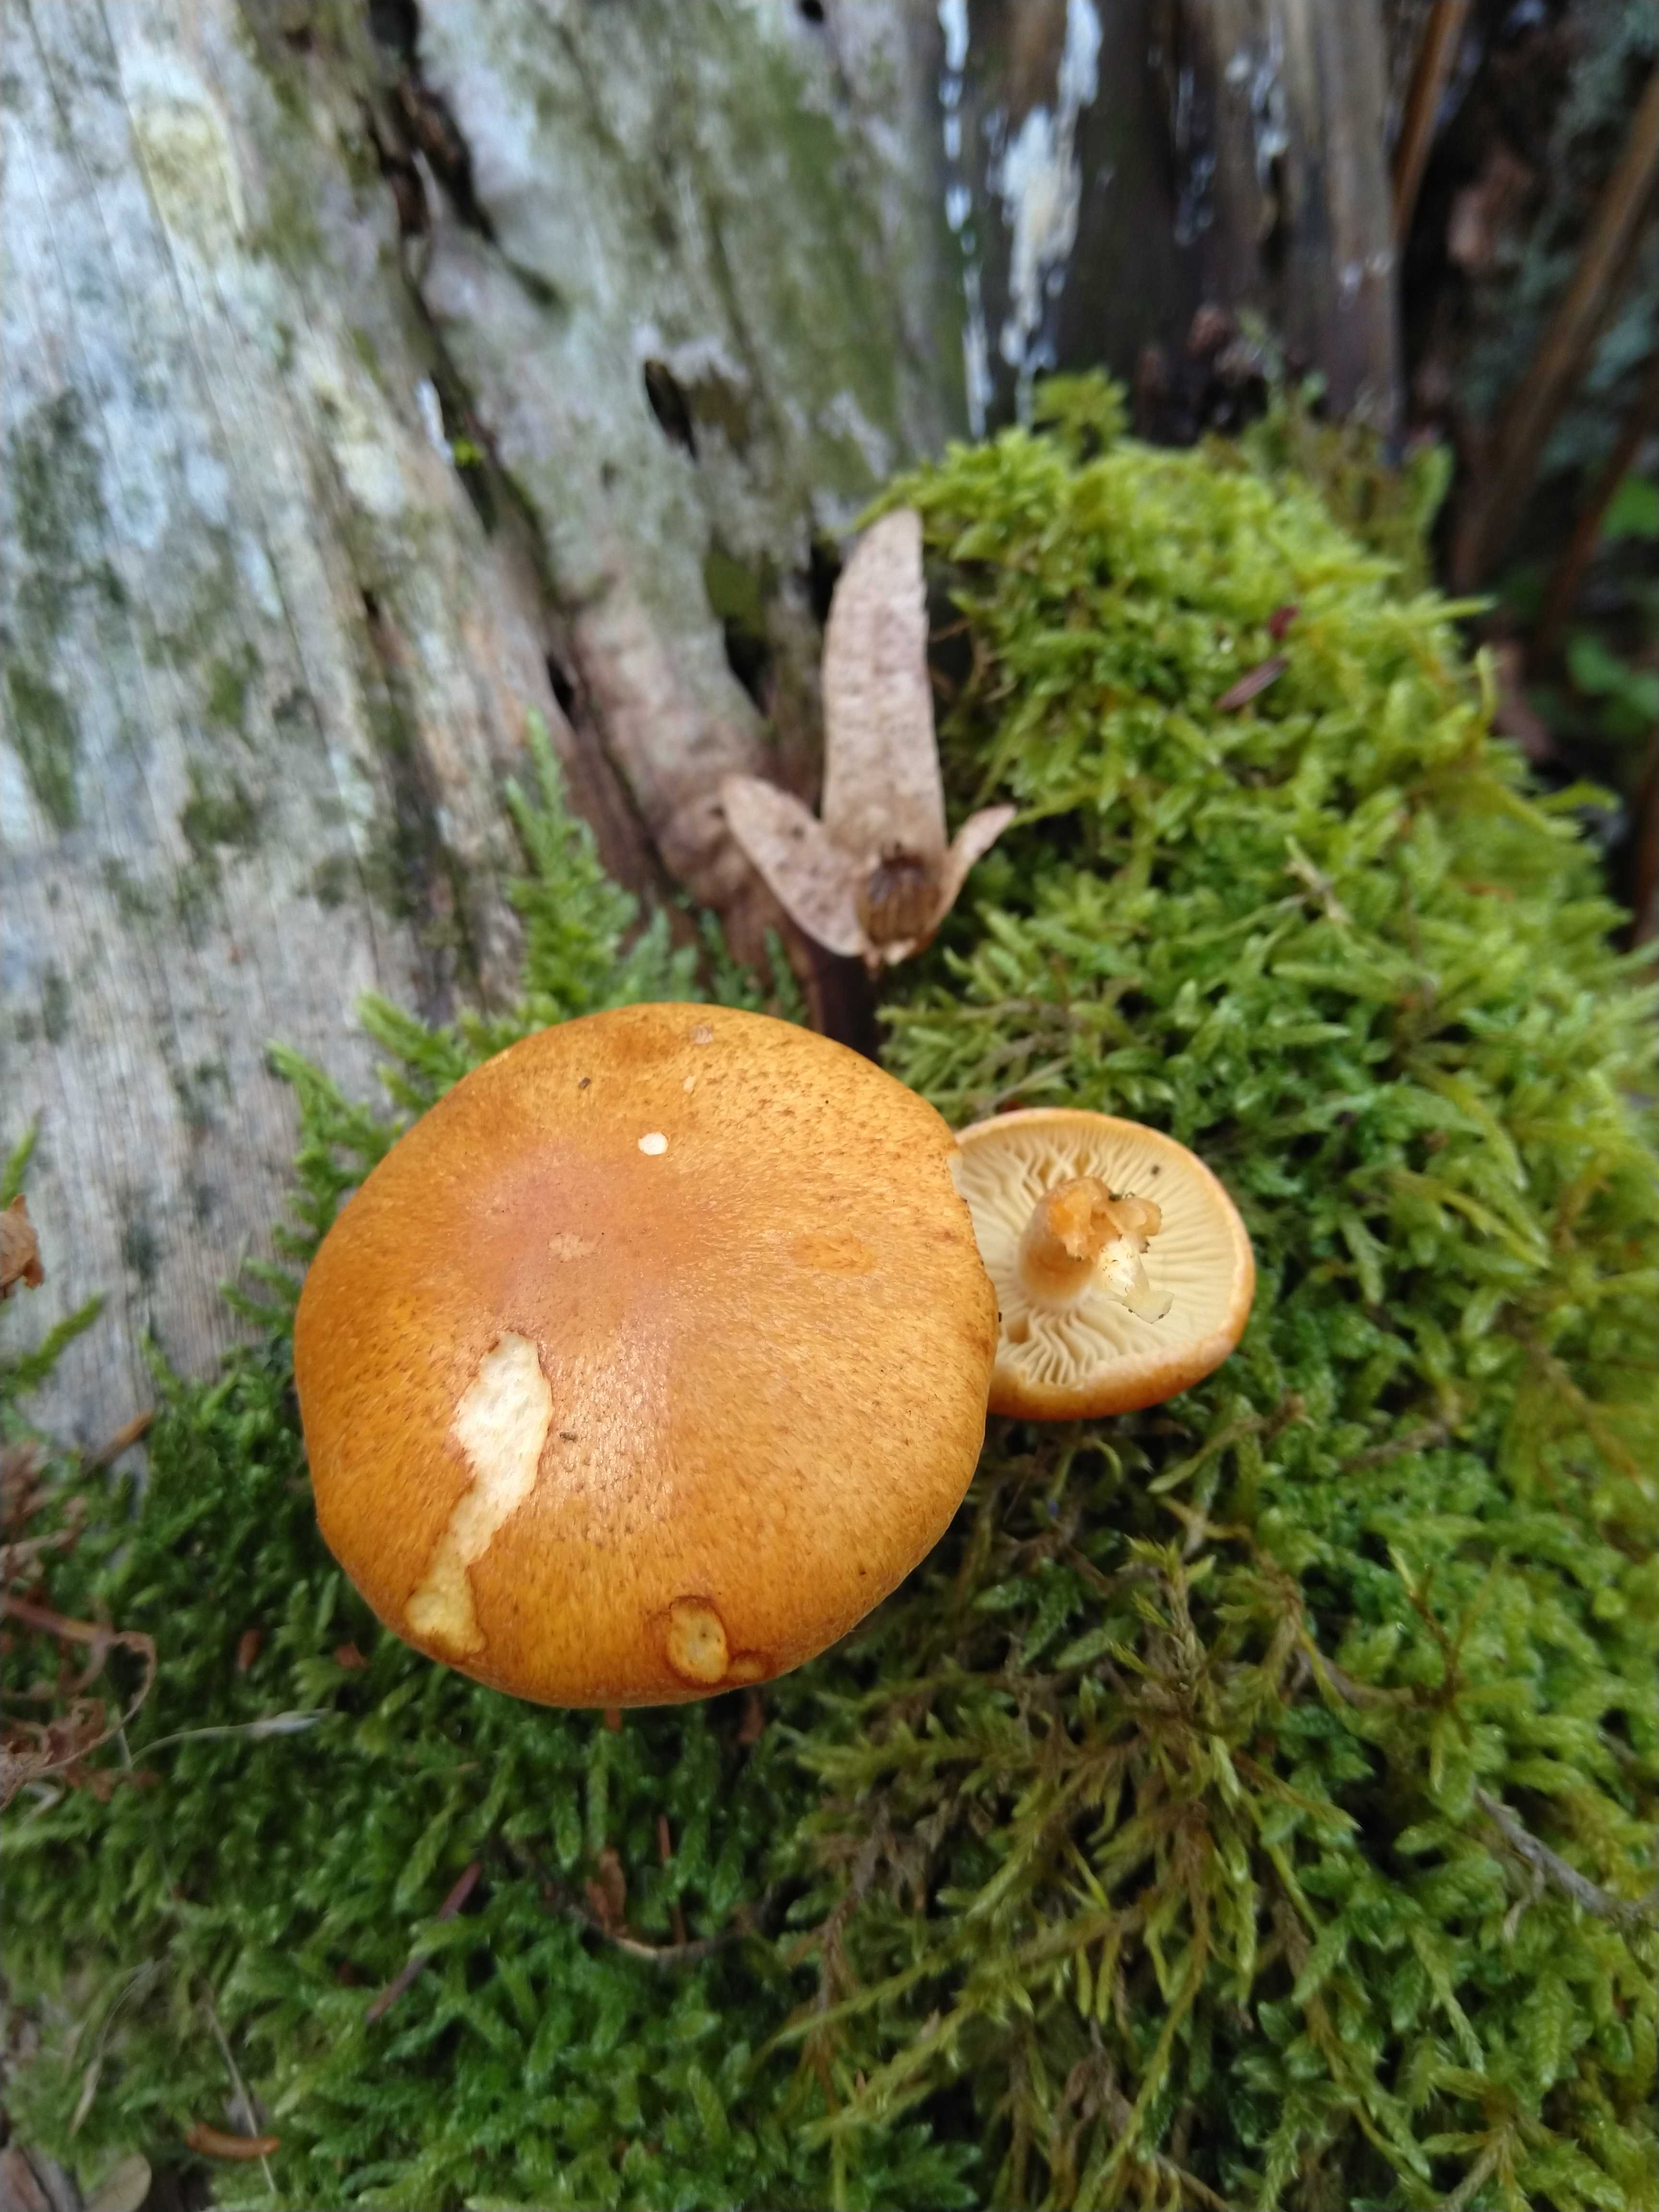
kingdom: Fungi
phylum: Basidiomycota
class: Agaricomycetes
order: Agaricales
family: Hymenogastraceae
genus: Gymnopilus
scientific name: Gymnopilus penetrans
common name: plettet flammehat
